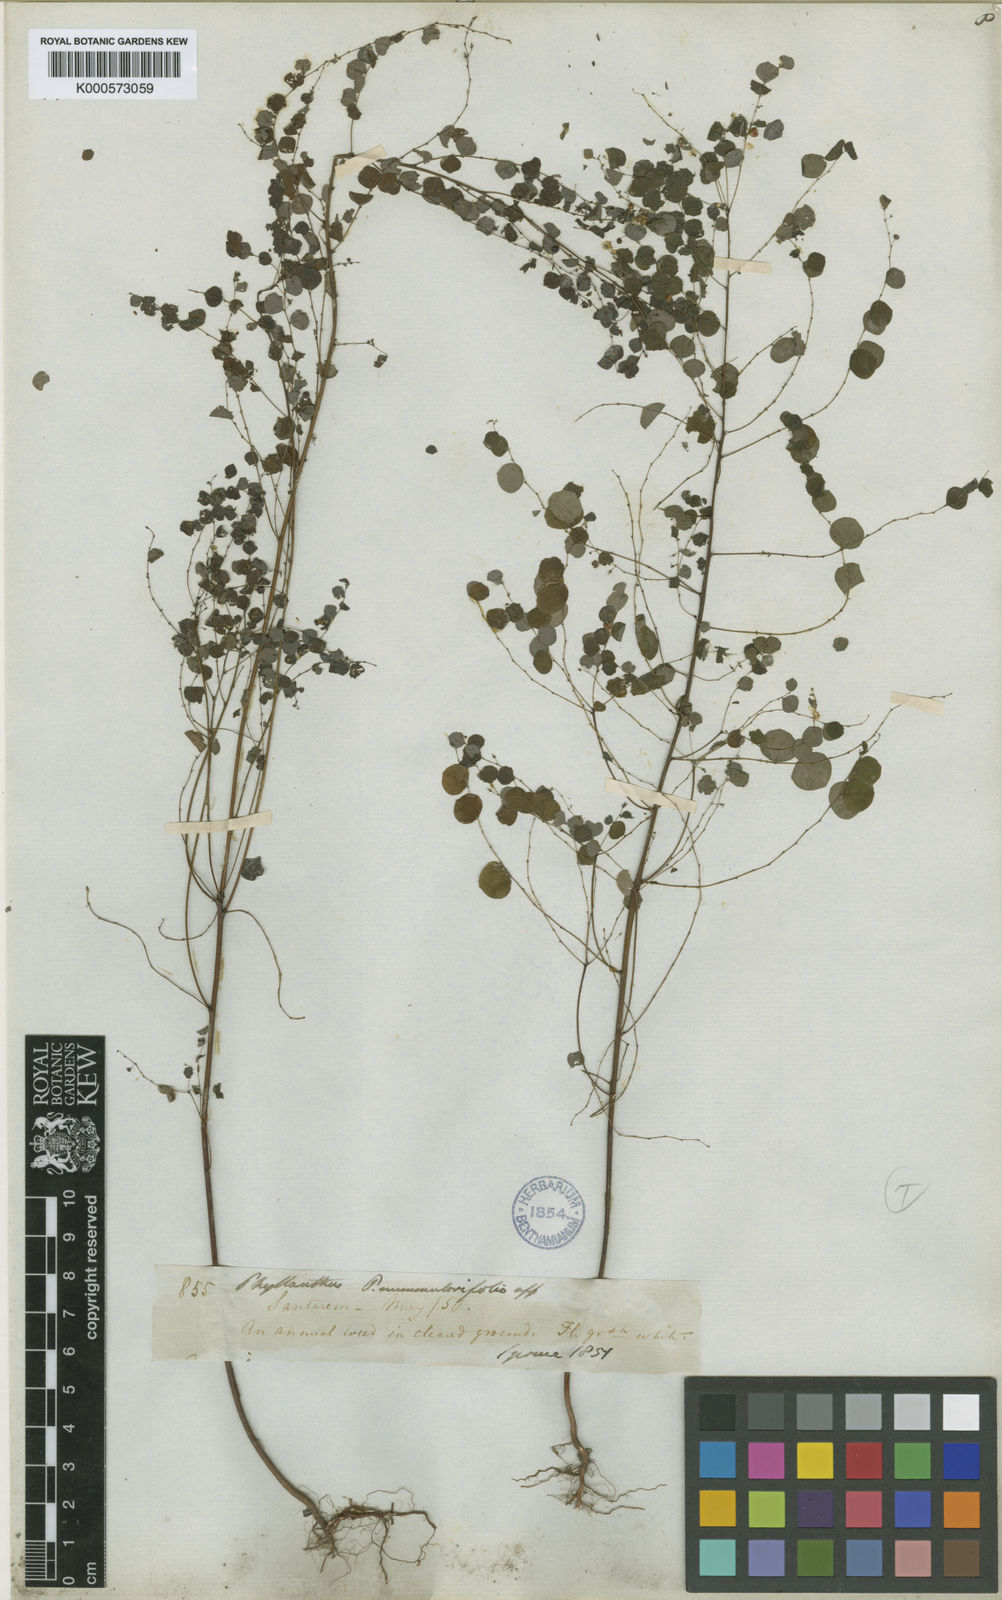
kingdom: Plantae
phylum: Tracheophyta
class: Magnoliopsida
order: Malpighiales
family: Phyllanthaceae
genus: Phyllanthus
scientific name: Phyllanthus orbiculatus
